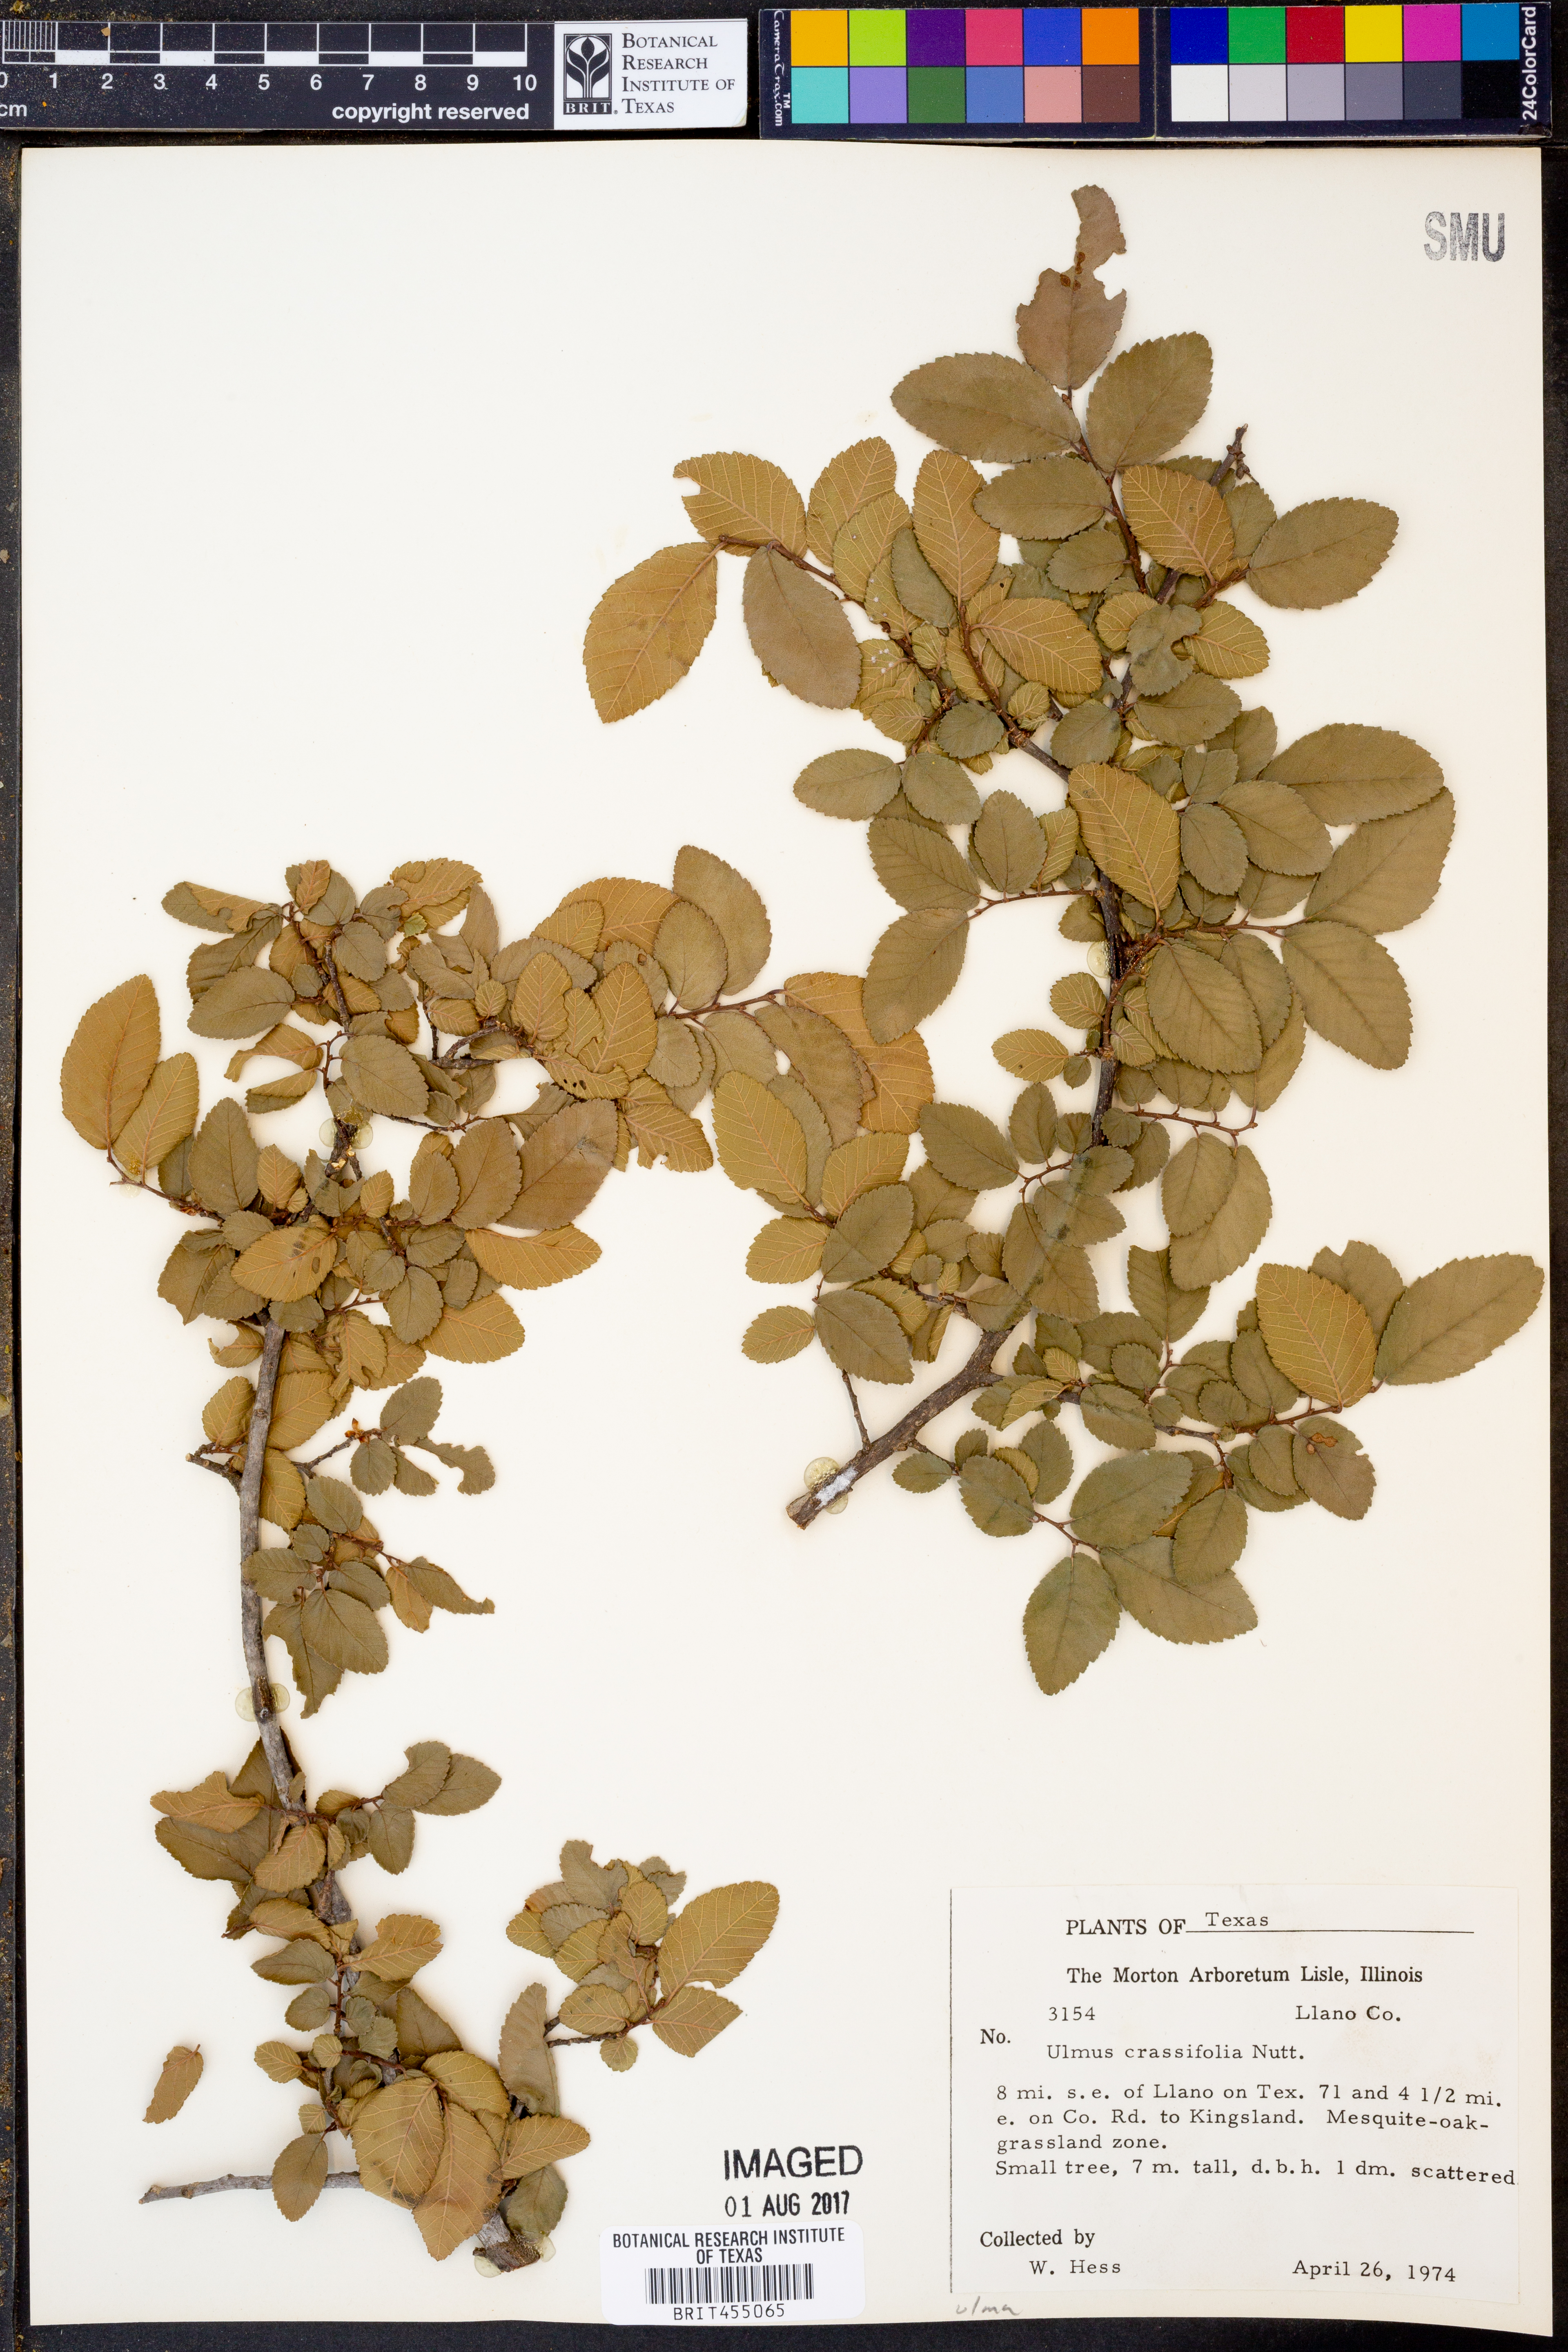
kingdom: Plantae
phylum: Tracheophyta
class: Magnoliopsida
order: Rosales
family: Ulmaceae
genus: Ulmus
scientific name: Ulmus crassifolia
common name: Basket elm
